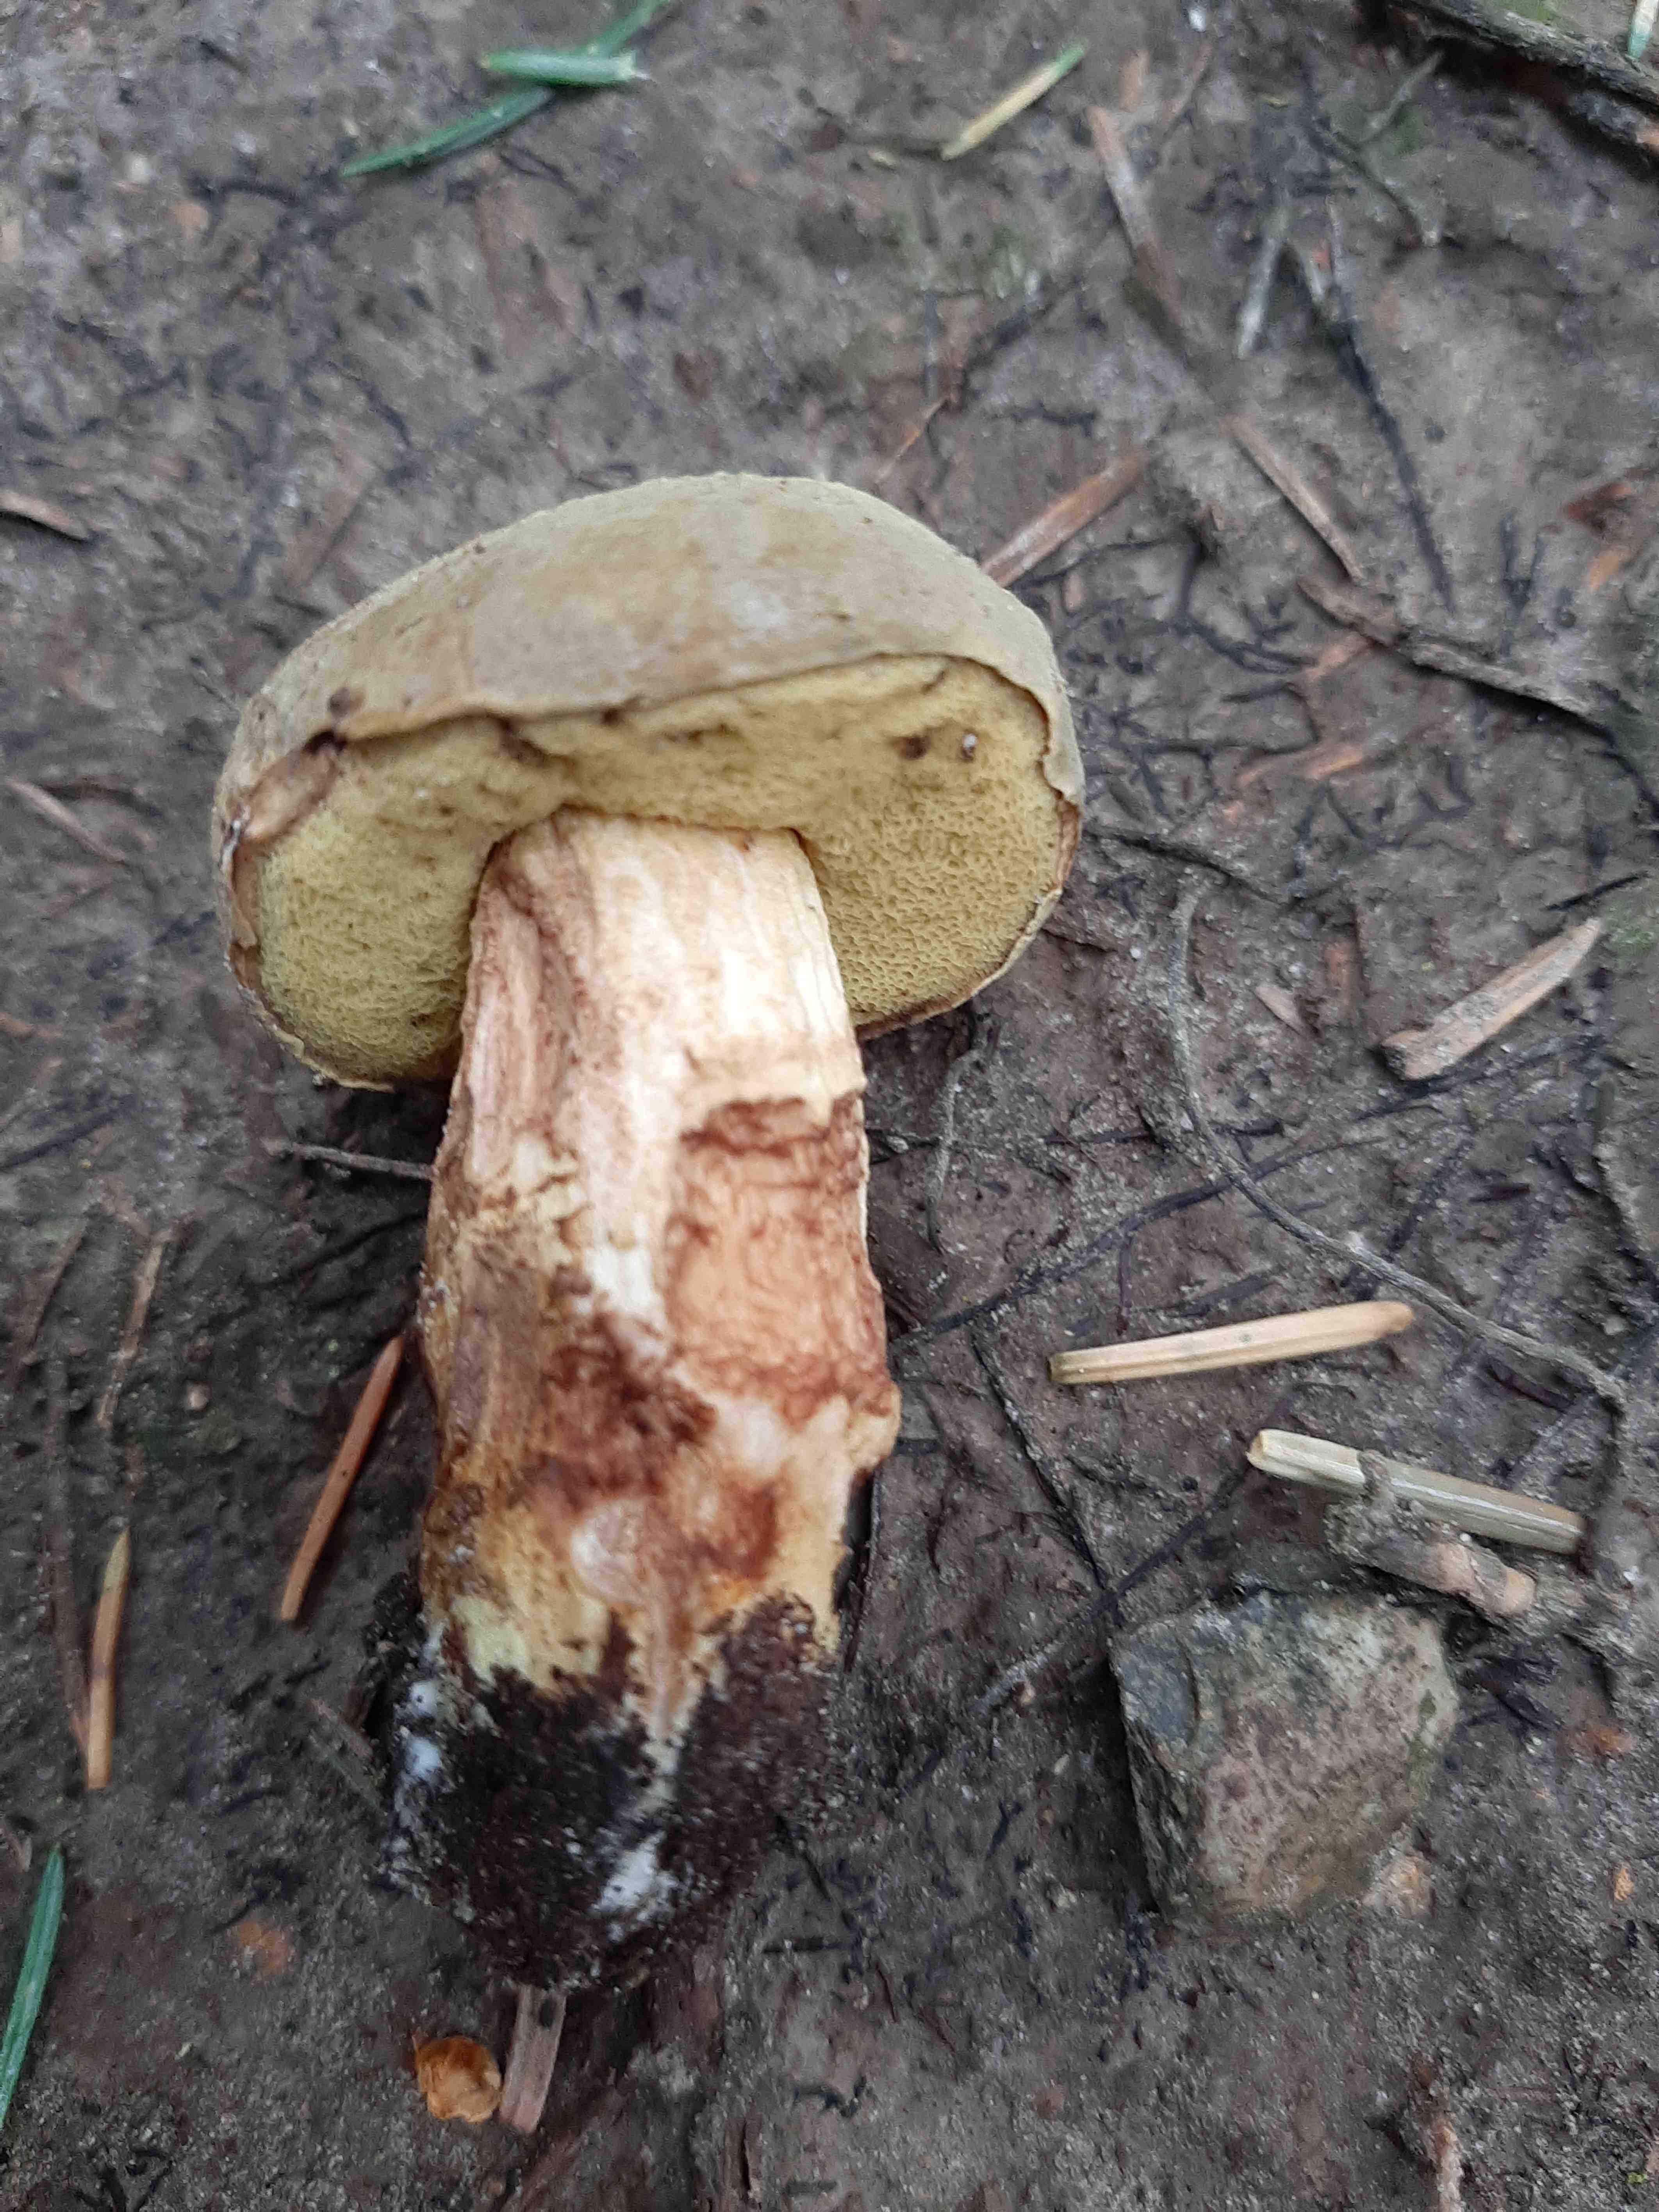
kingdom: Fungi
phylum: Basidiomycota
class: Agaricomycetes
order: Boletales
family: Boletaceae
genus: Xerocomus
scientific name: Xerocomus
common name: filtrørhat
